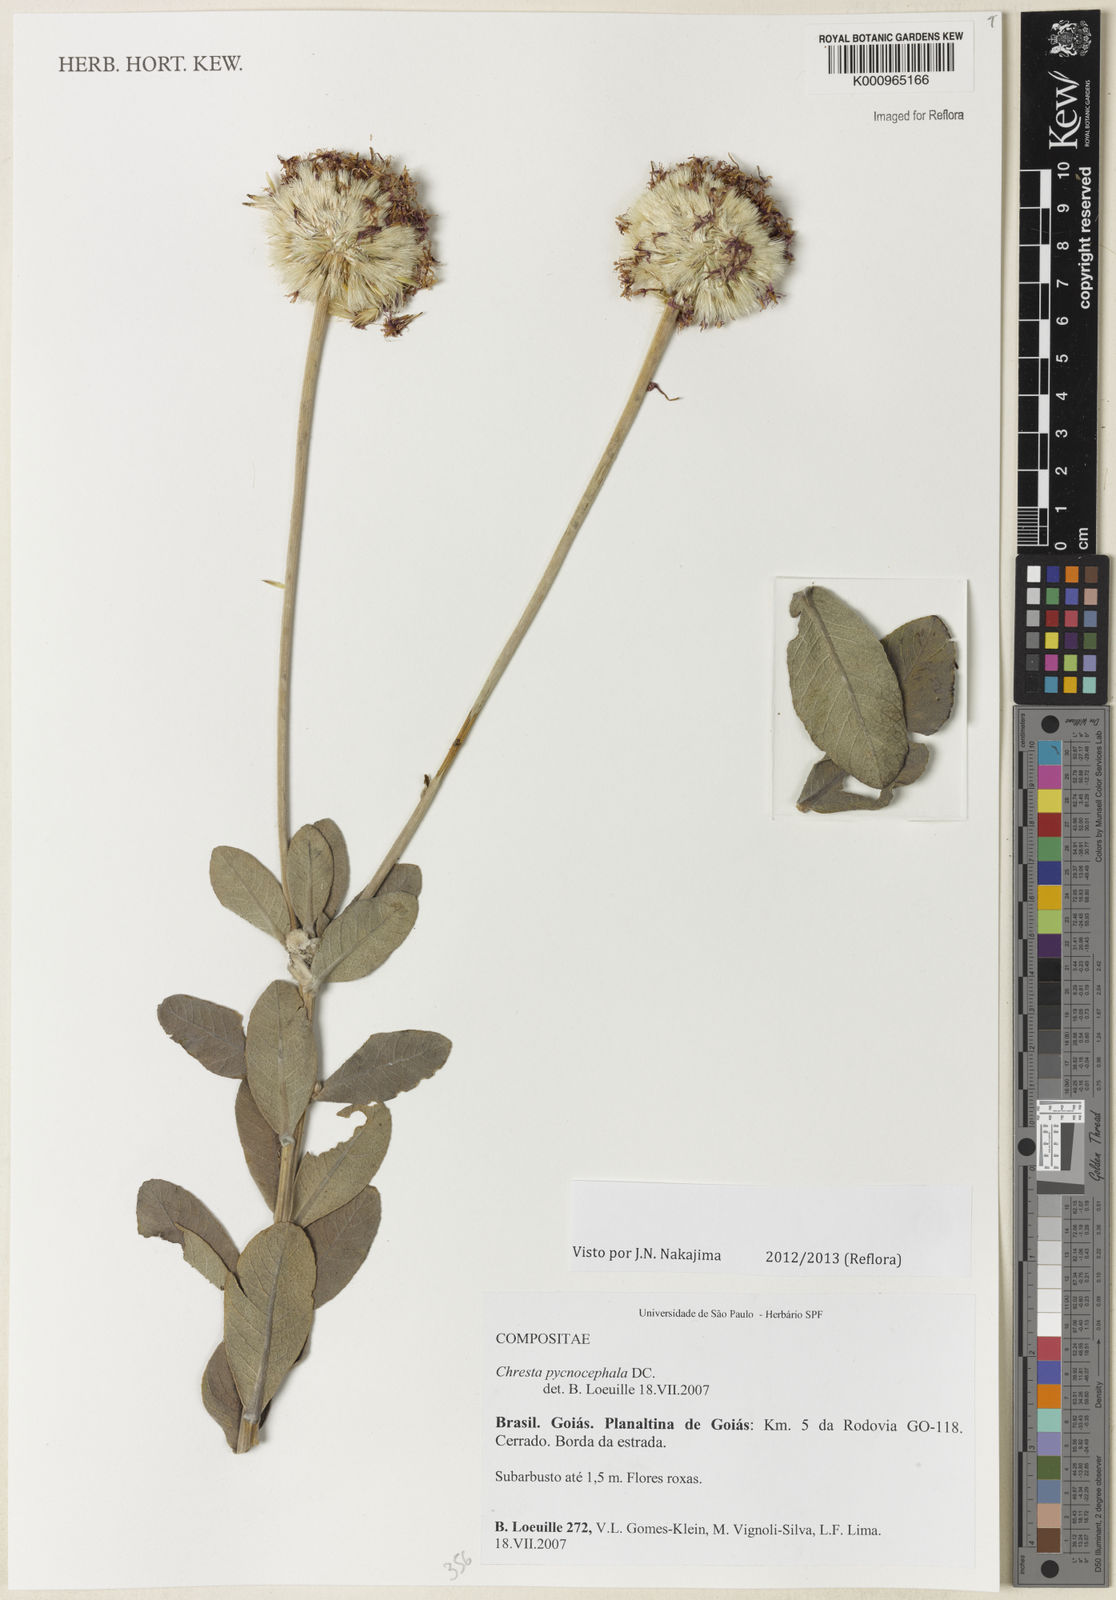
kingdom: Plantae
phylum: Tracheophyta
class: Magnoliopsida
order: Asterales
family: Asteraceae
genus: Chresta
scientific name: Chresta pycnocephala
